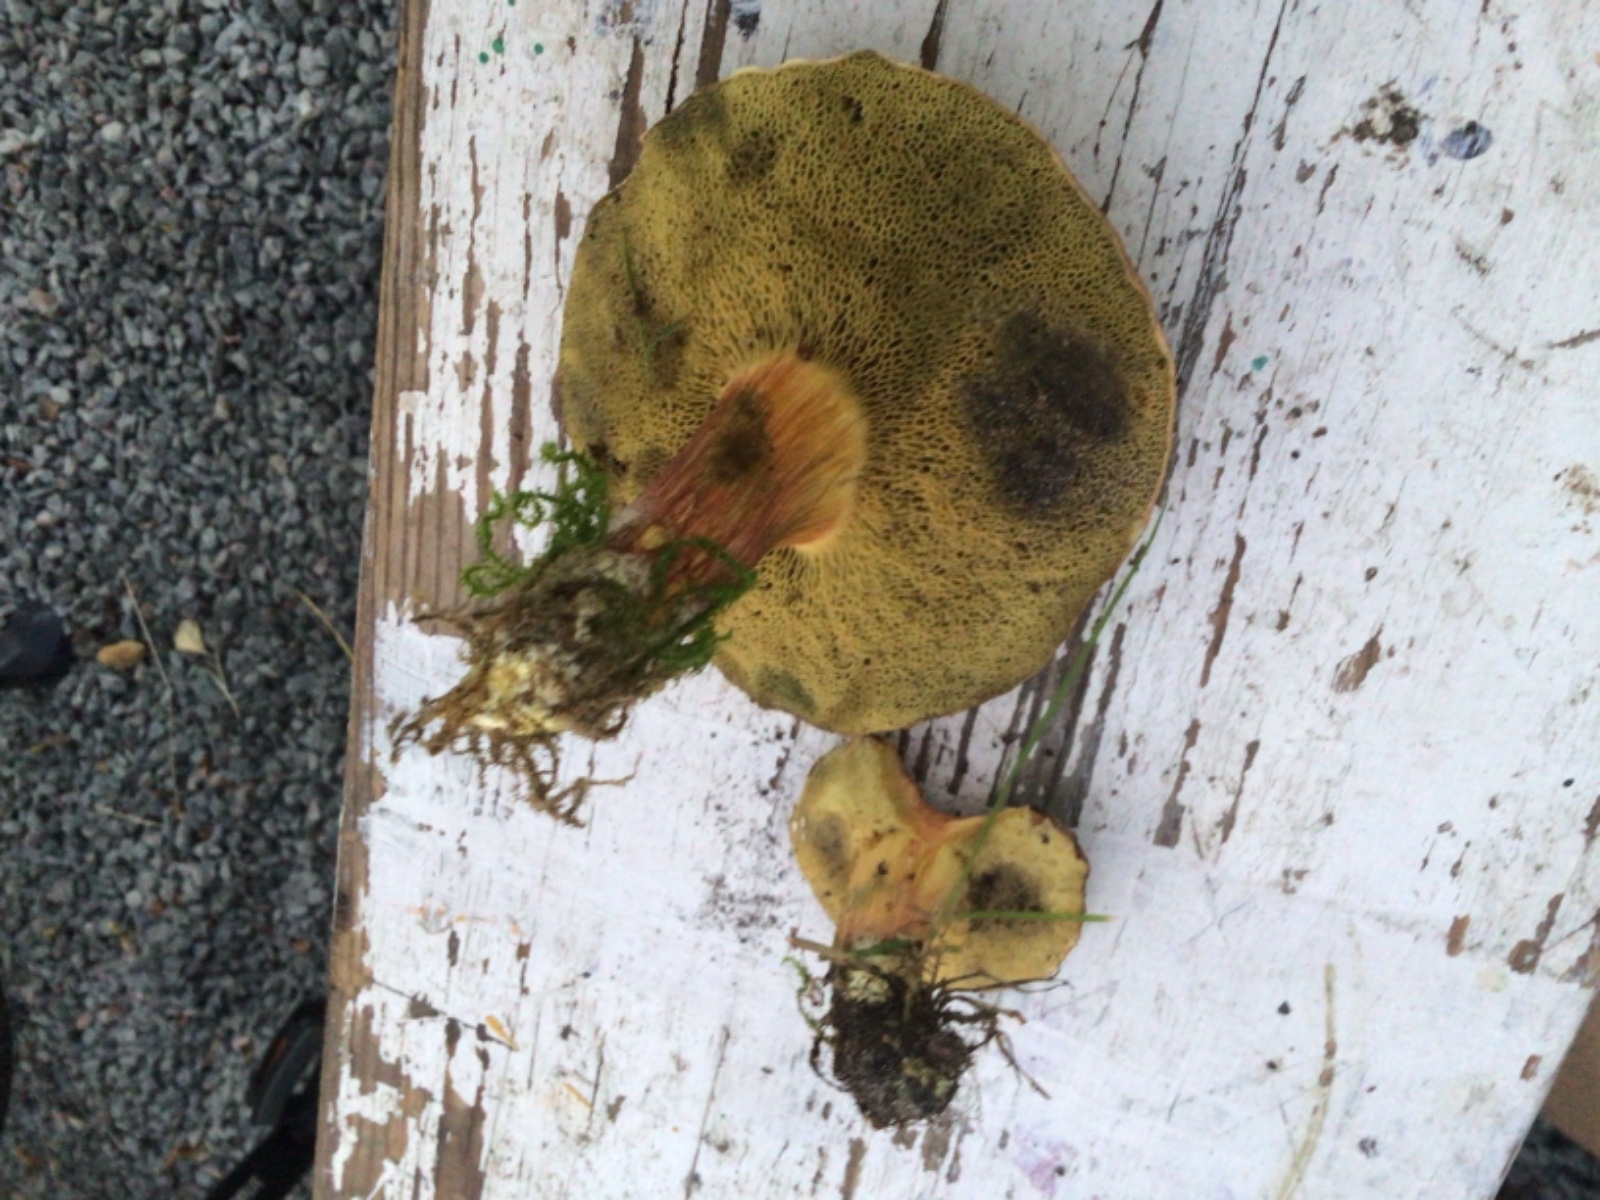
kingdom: Fungi
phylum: Basidiomycota
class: Agaricomycetes
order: Boletales
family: Boletaceae
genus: Hortiboletus
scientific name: Hortiboletus bubalinus
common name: aurora-rørhat
